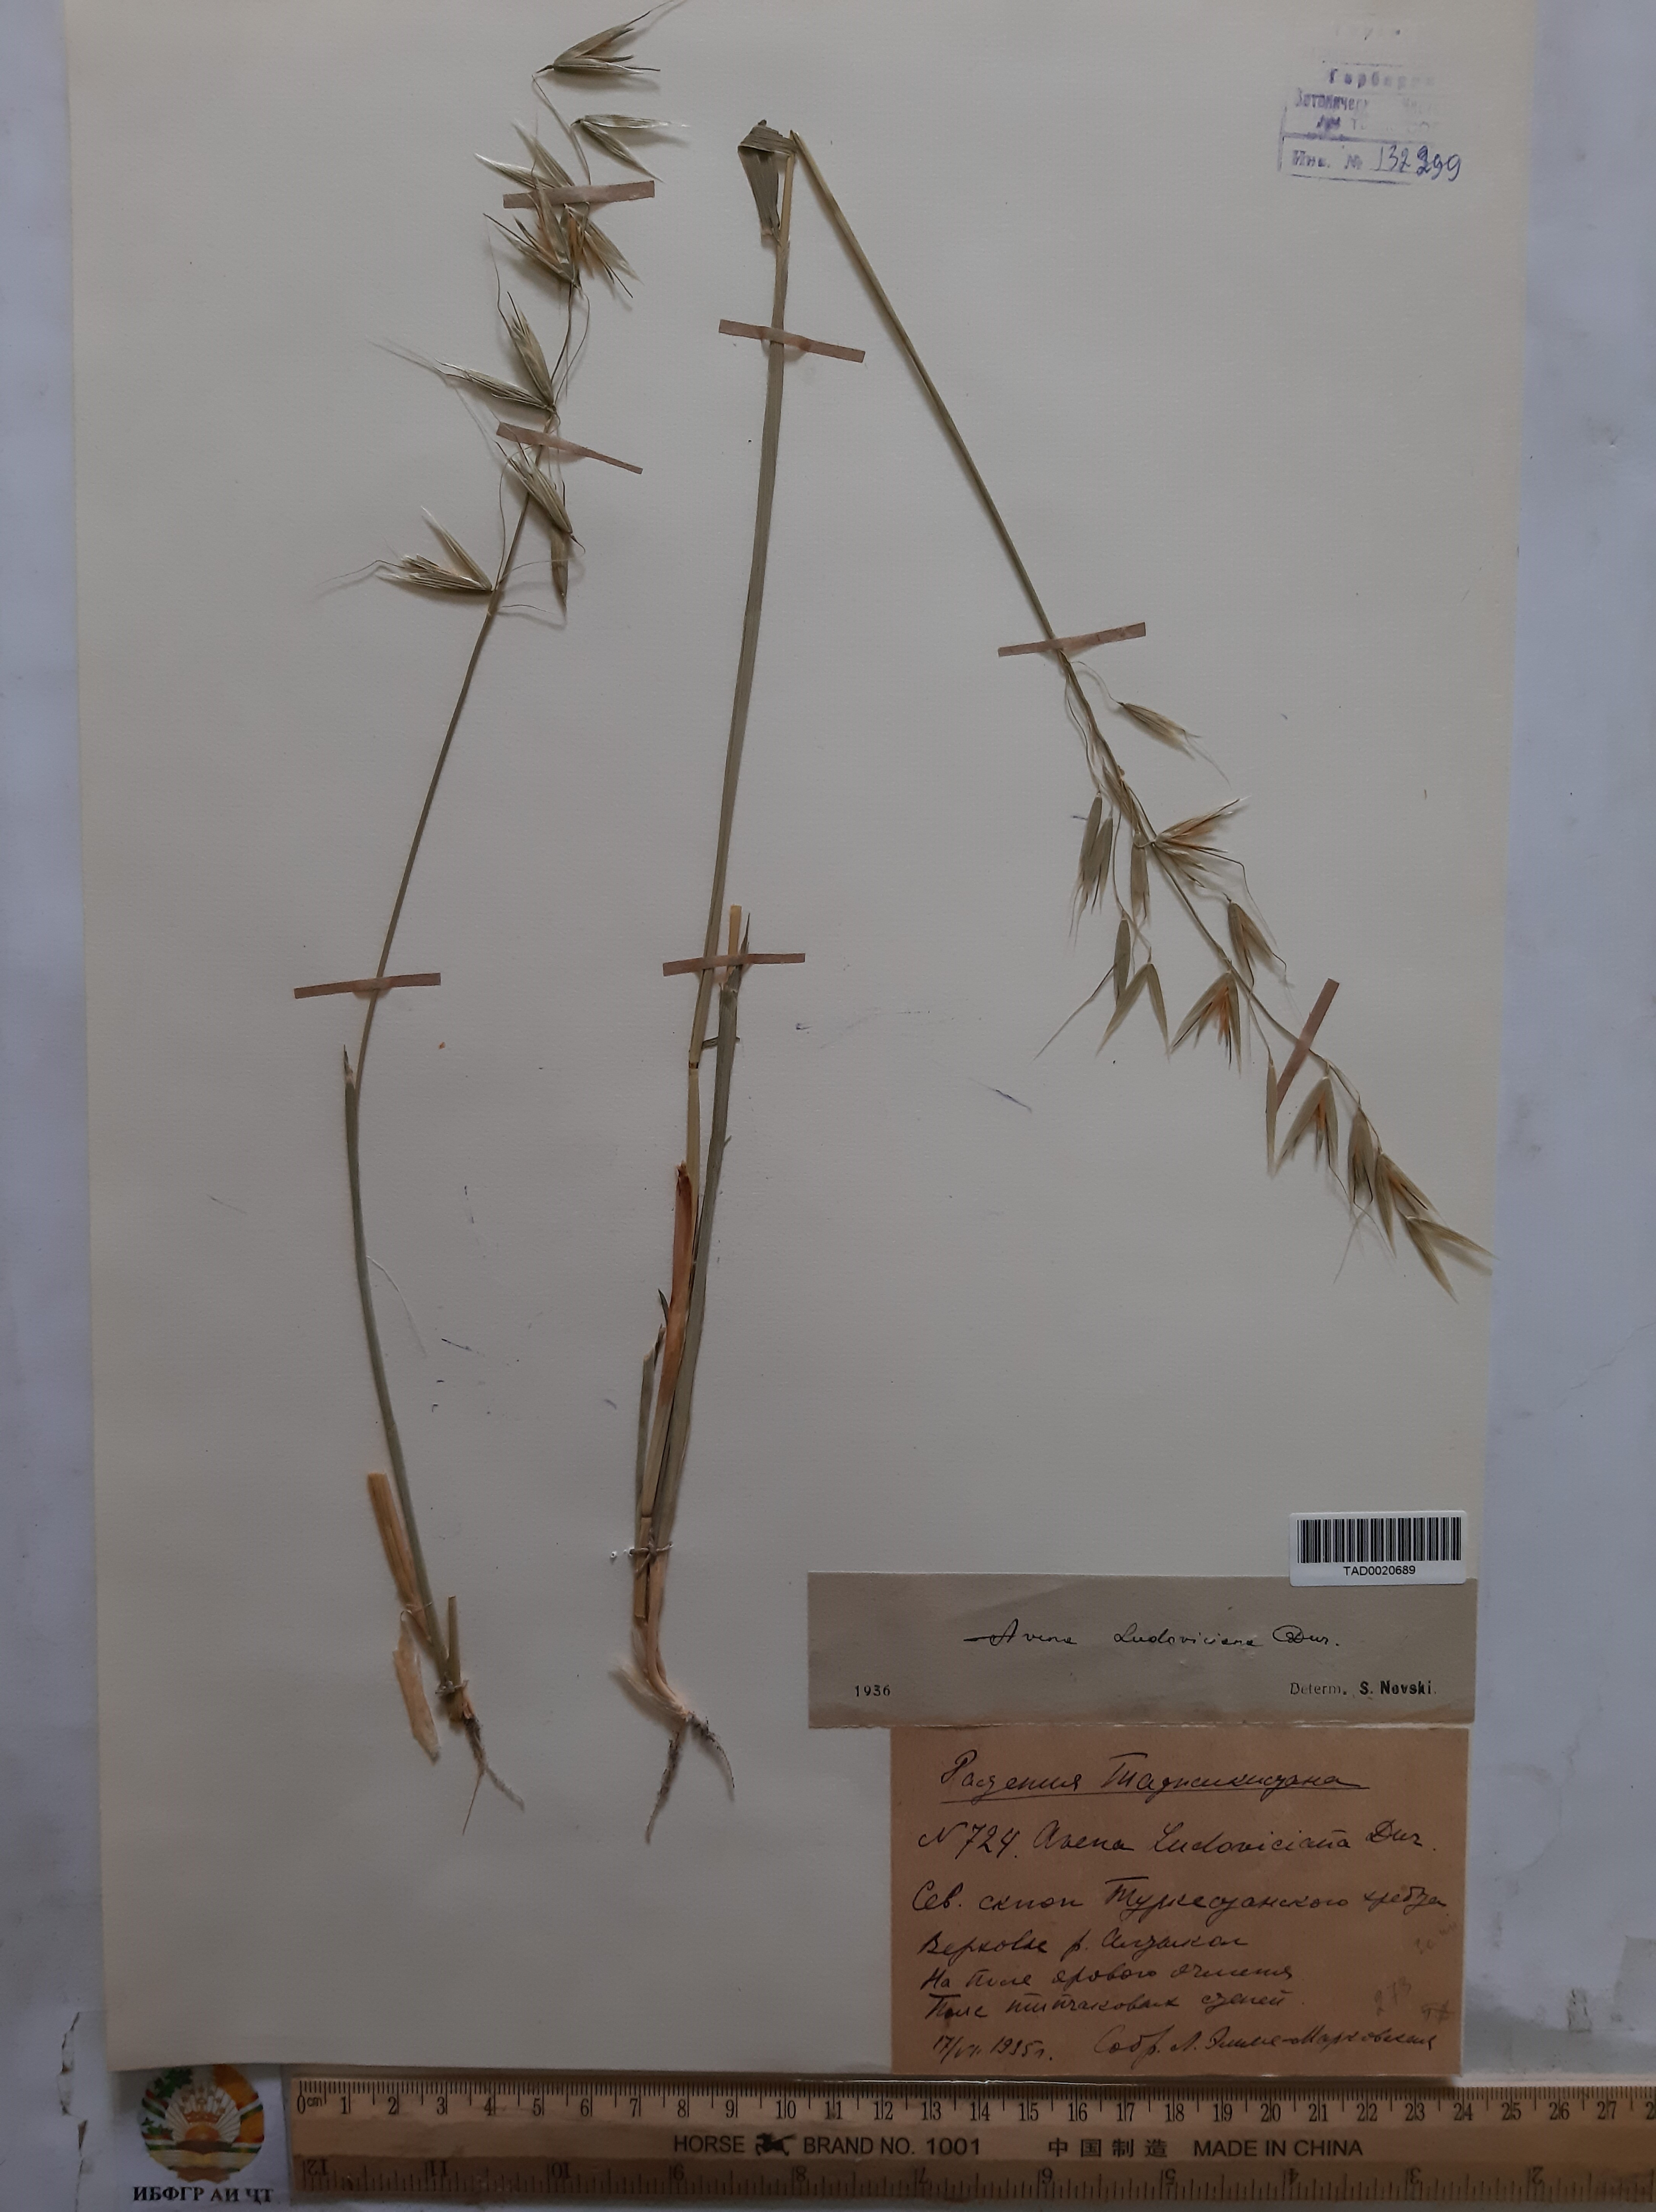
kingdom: Plantae
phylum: Tracheophyta
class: Liliopsida
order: Poales
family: Poaceae
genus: Avena
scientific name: Avena sterilis
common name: Animated oat
